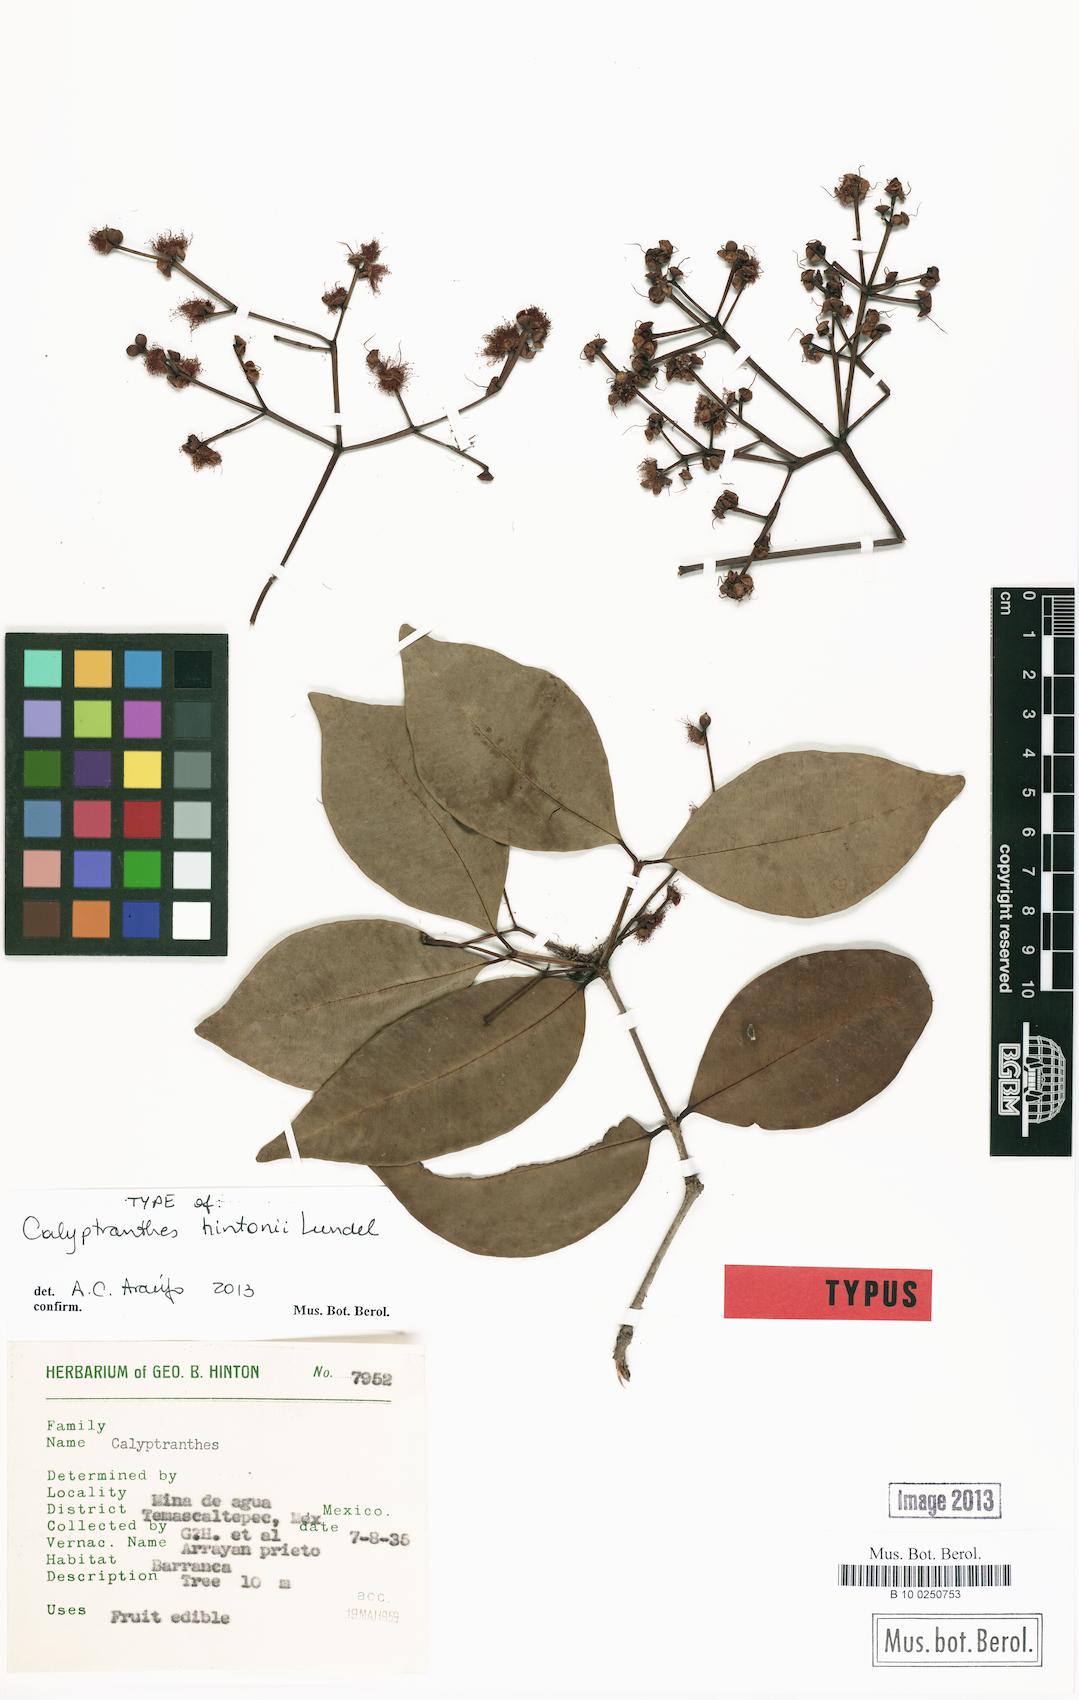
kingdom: Plantae
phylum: Tracheophyta
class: Magnoliopsida
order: Myrtales
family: Myrtaceae
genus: Myrcia
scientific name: Myrcia hintonii
